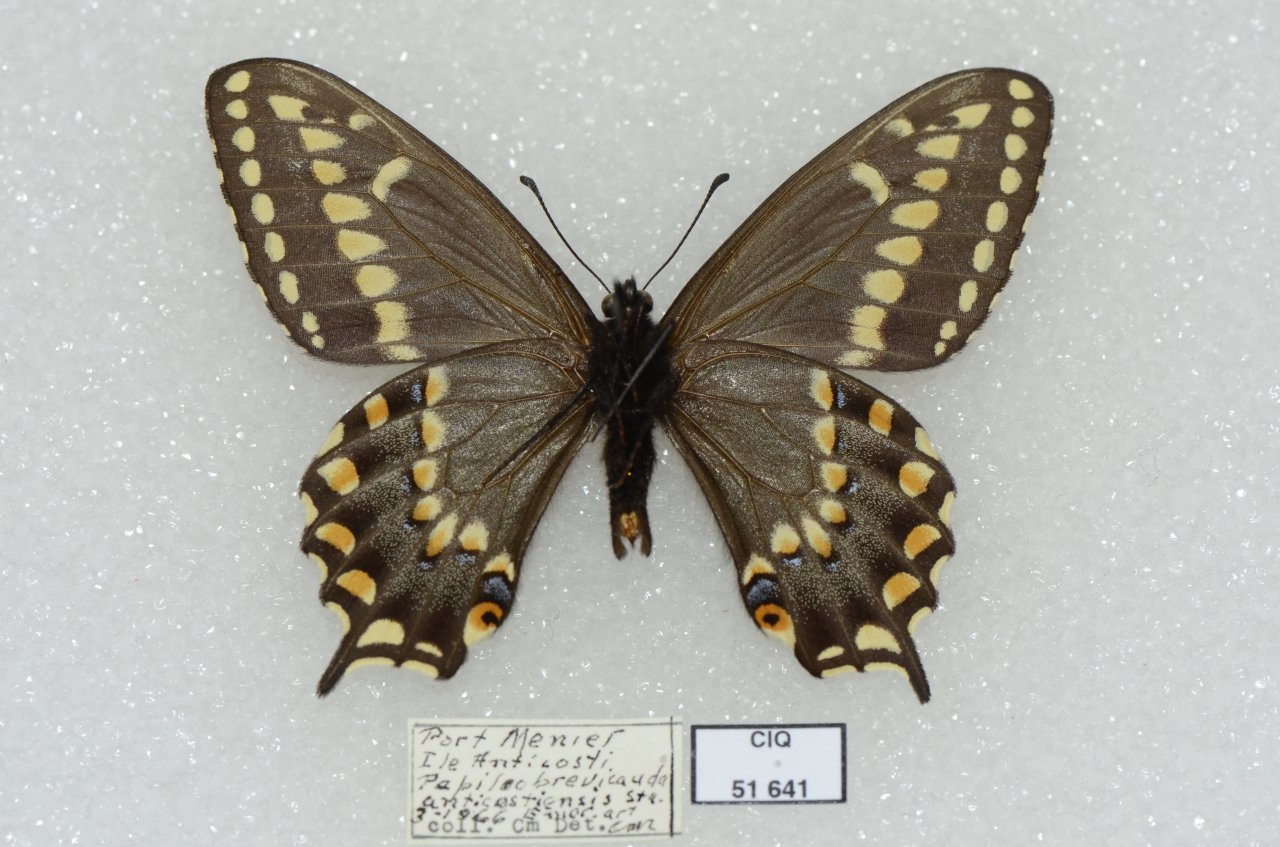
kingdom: Animalia
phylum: Arthropoda
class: Insecta
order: Lepidoptera
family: Papilionidae
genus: Papilio
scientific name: Papilio brevicauda
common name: Short-tailed Swallowtail
